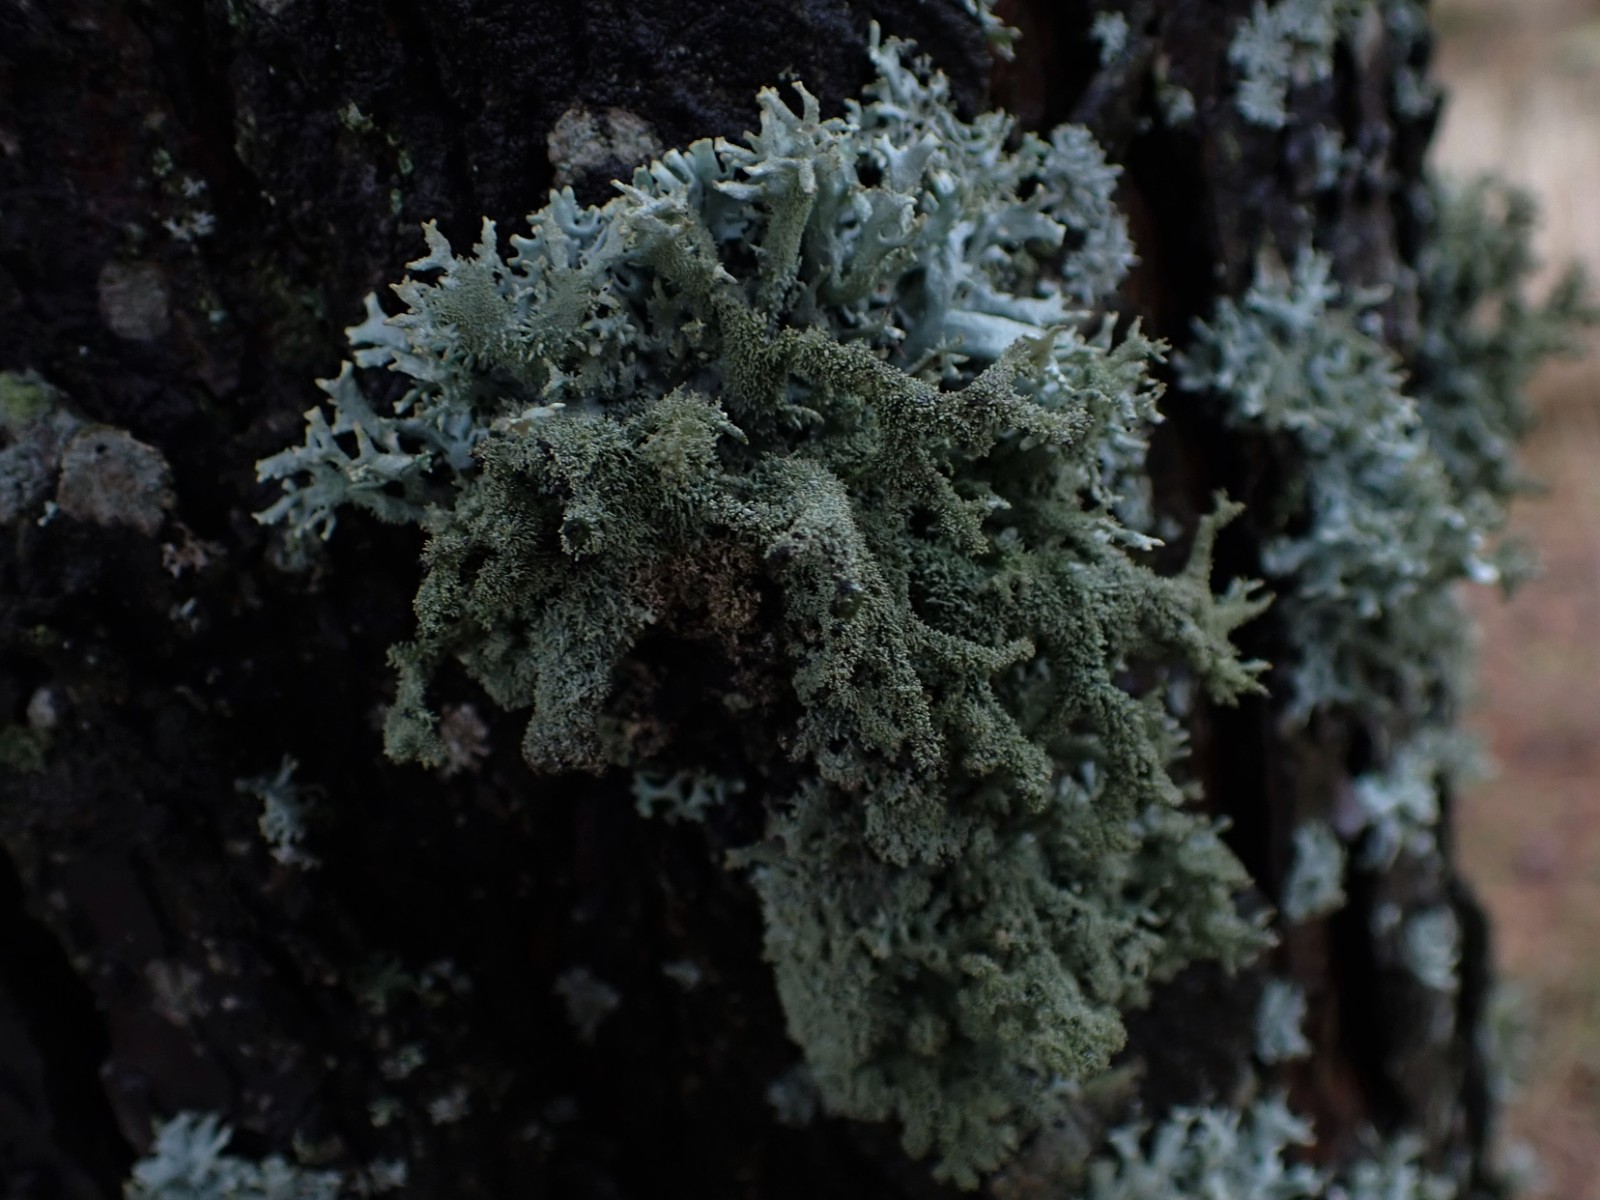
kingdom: Fungi
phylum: Ascomycota
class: Lecanoromycetes
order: Lecanorales
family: Parmeliaceae
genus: Pseudevernia
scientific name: Pseudevernia furfuracea
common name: grå fyrrelav
